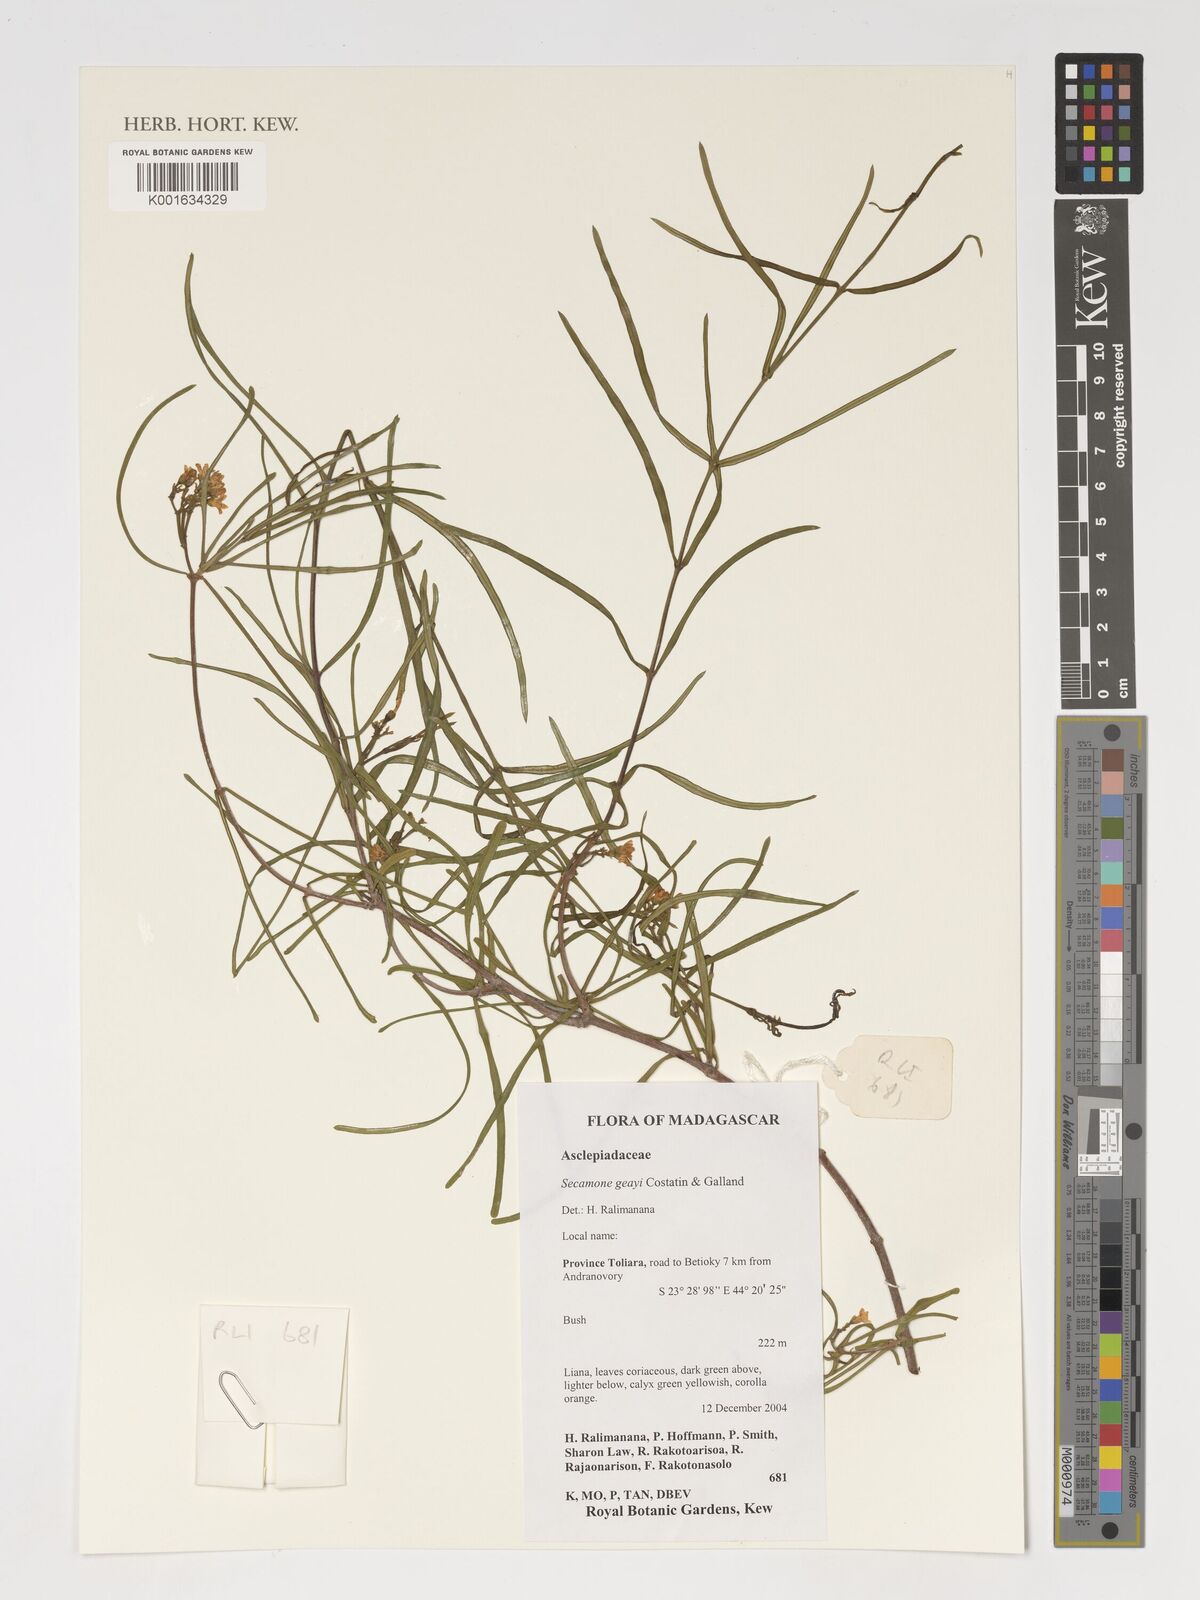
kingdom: Plantae
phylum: Tracheophyta
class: Magnoliopsida
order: Gentianales
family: Apocynaceae
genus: Secamone
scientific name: Secamone geayi
